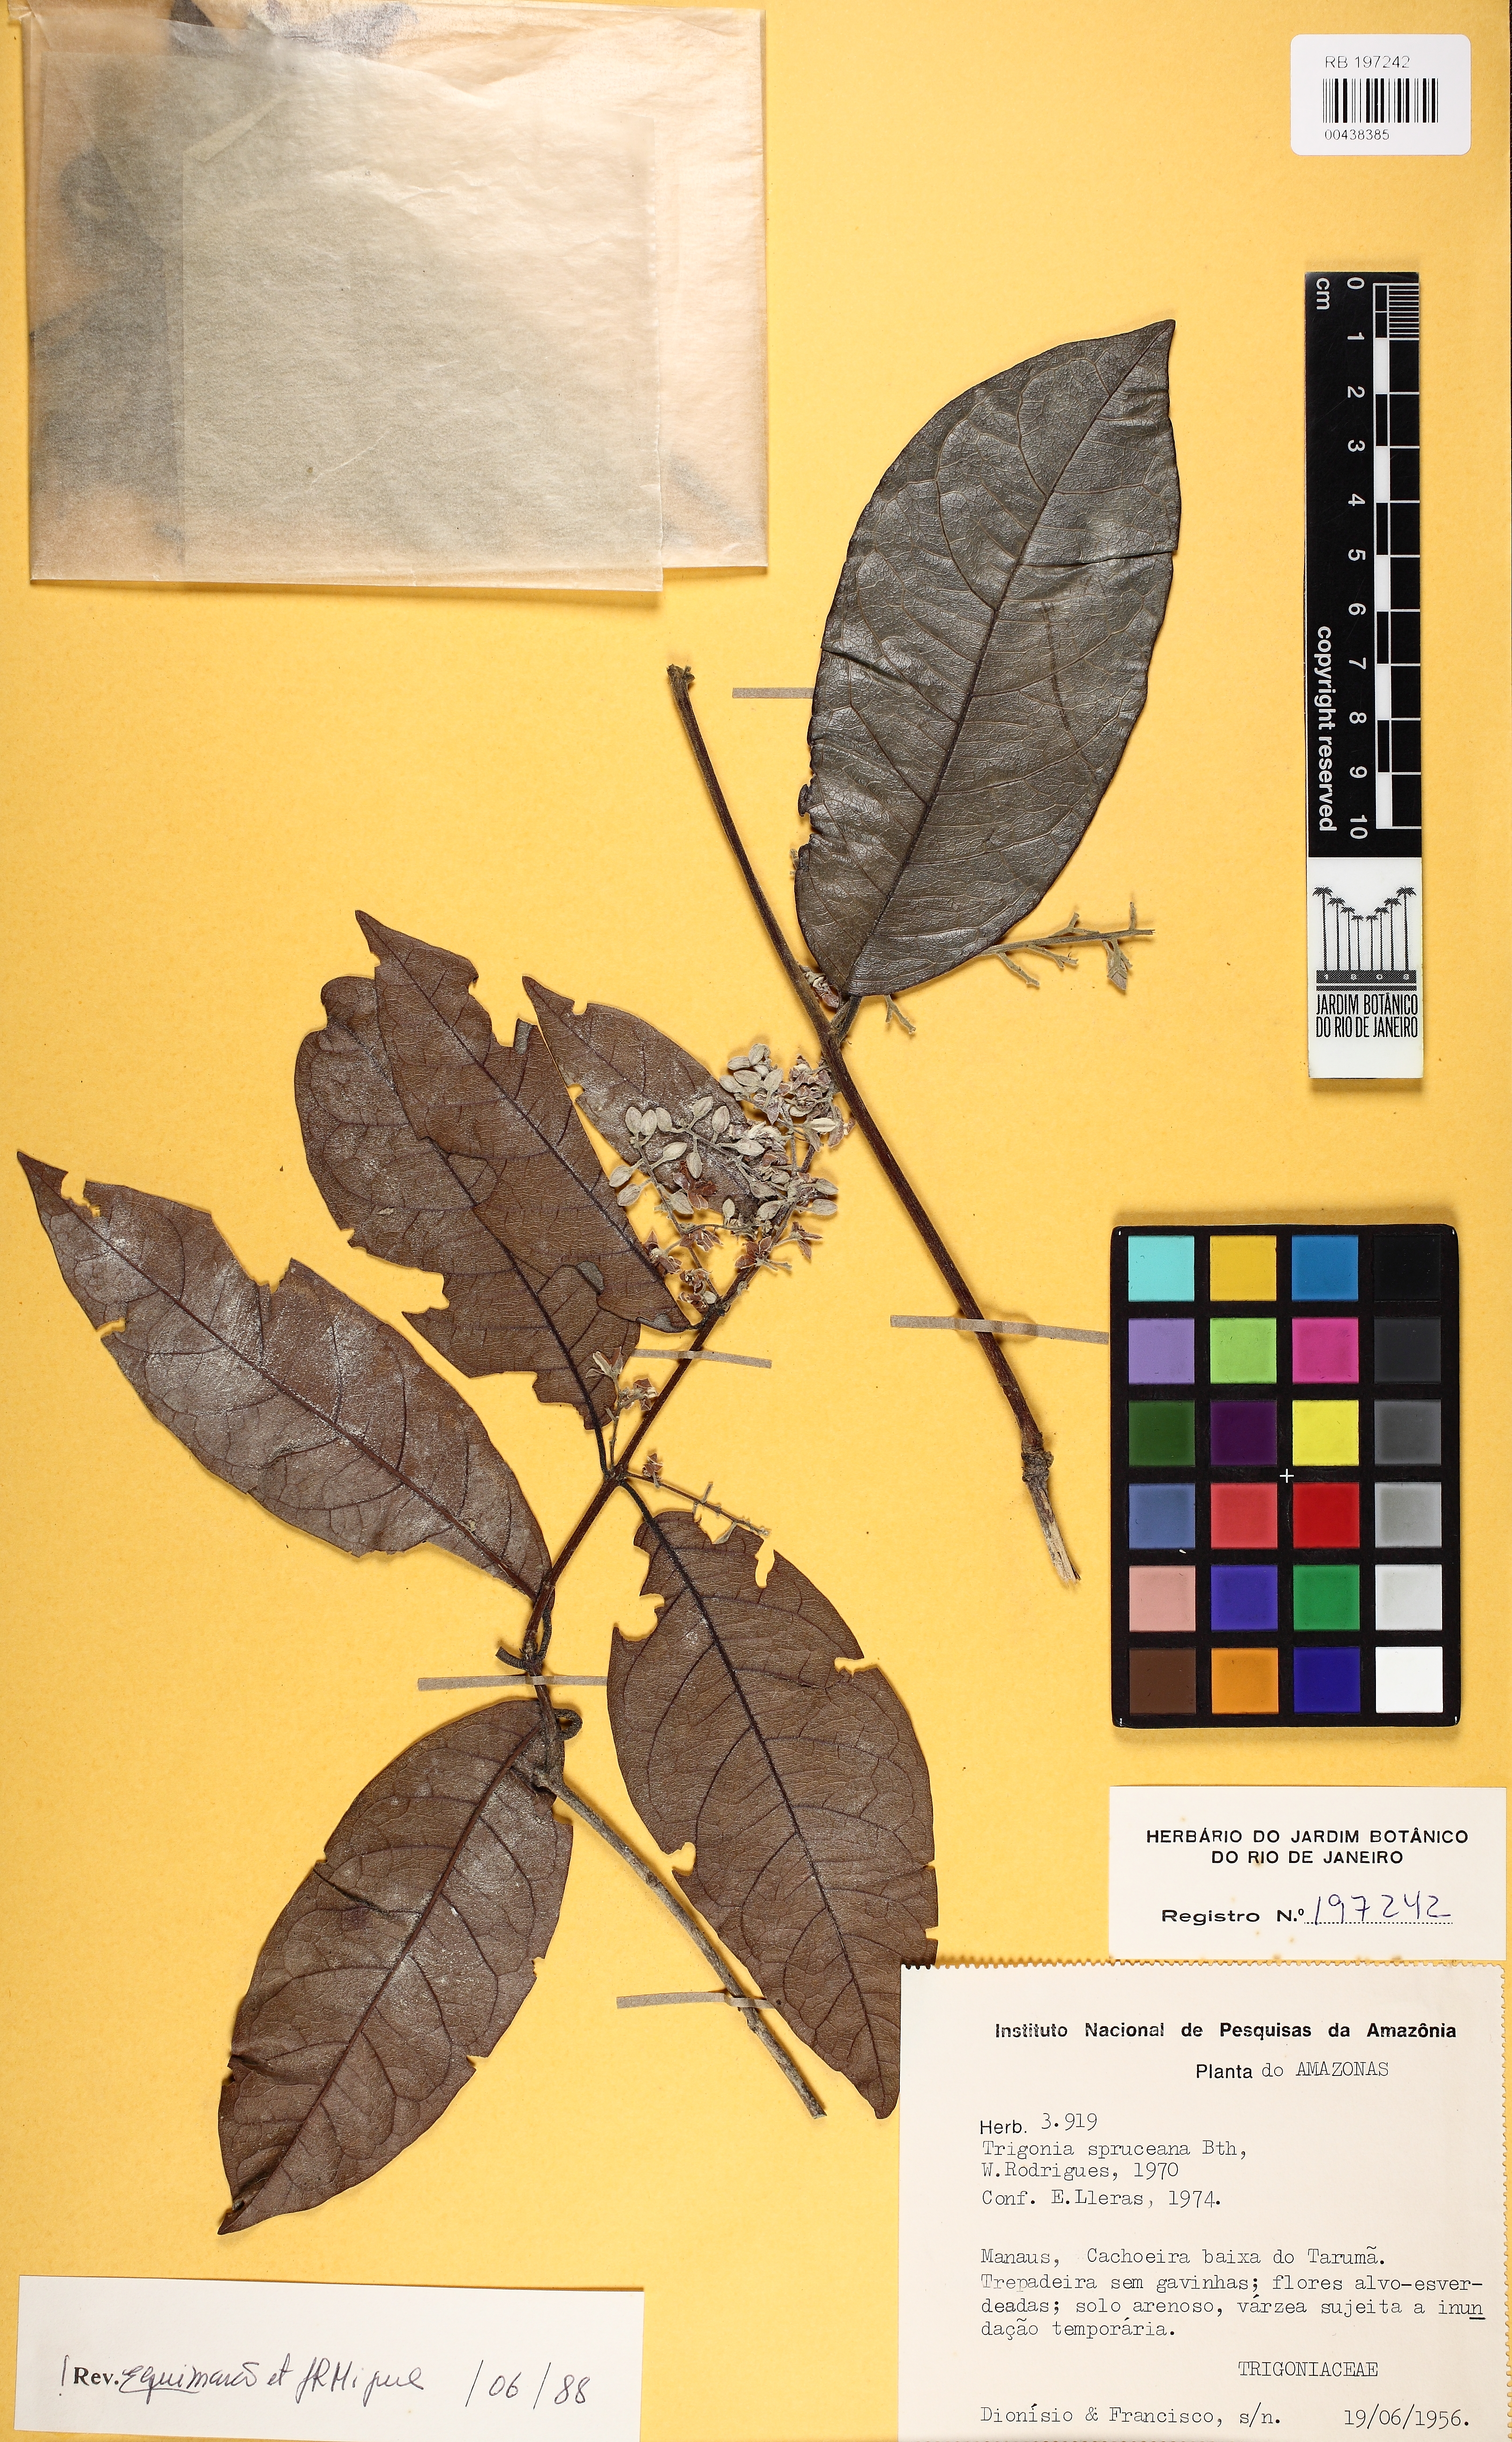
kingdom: Plantae
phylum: Tracheophyta
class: Magnoliopsida
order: Malpighiales
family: Trigoniaceae
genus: Trigonia
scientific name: Trigonia spruceana
